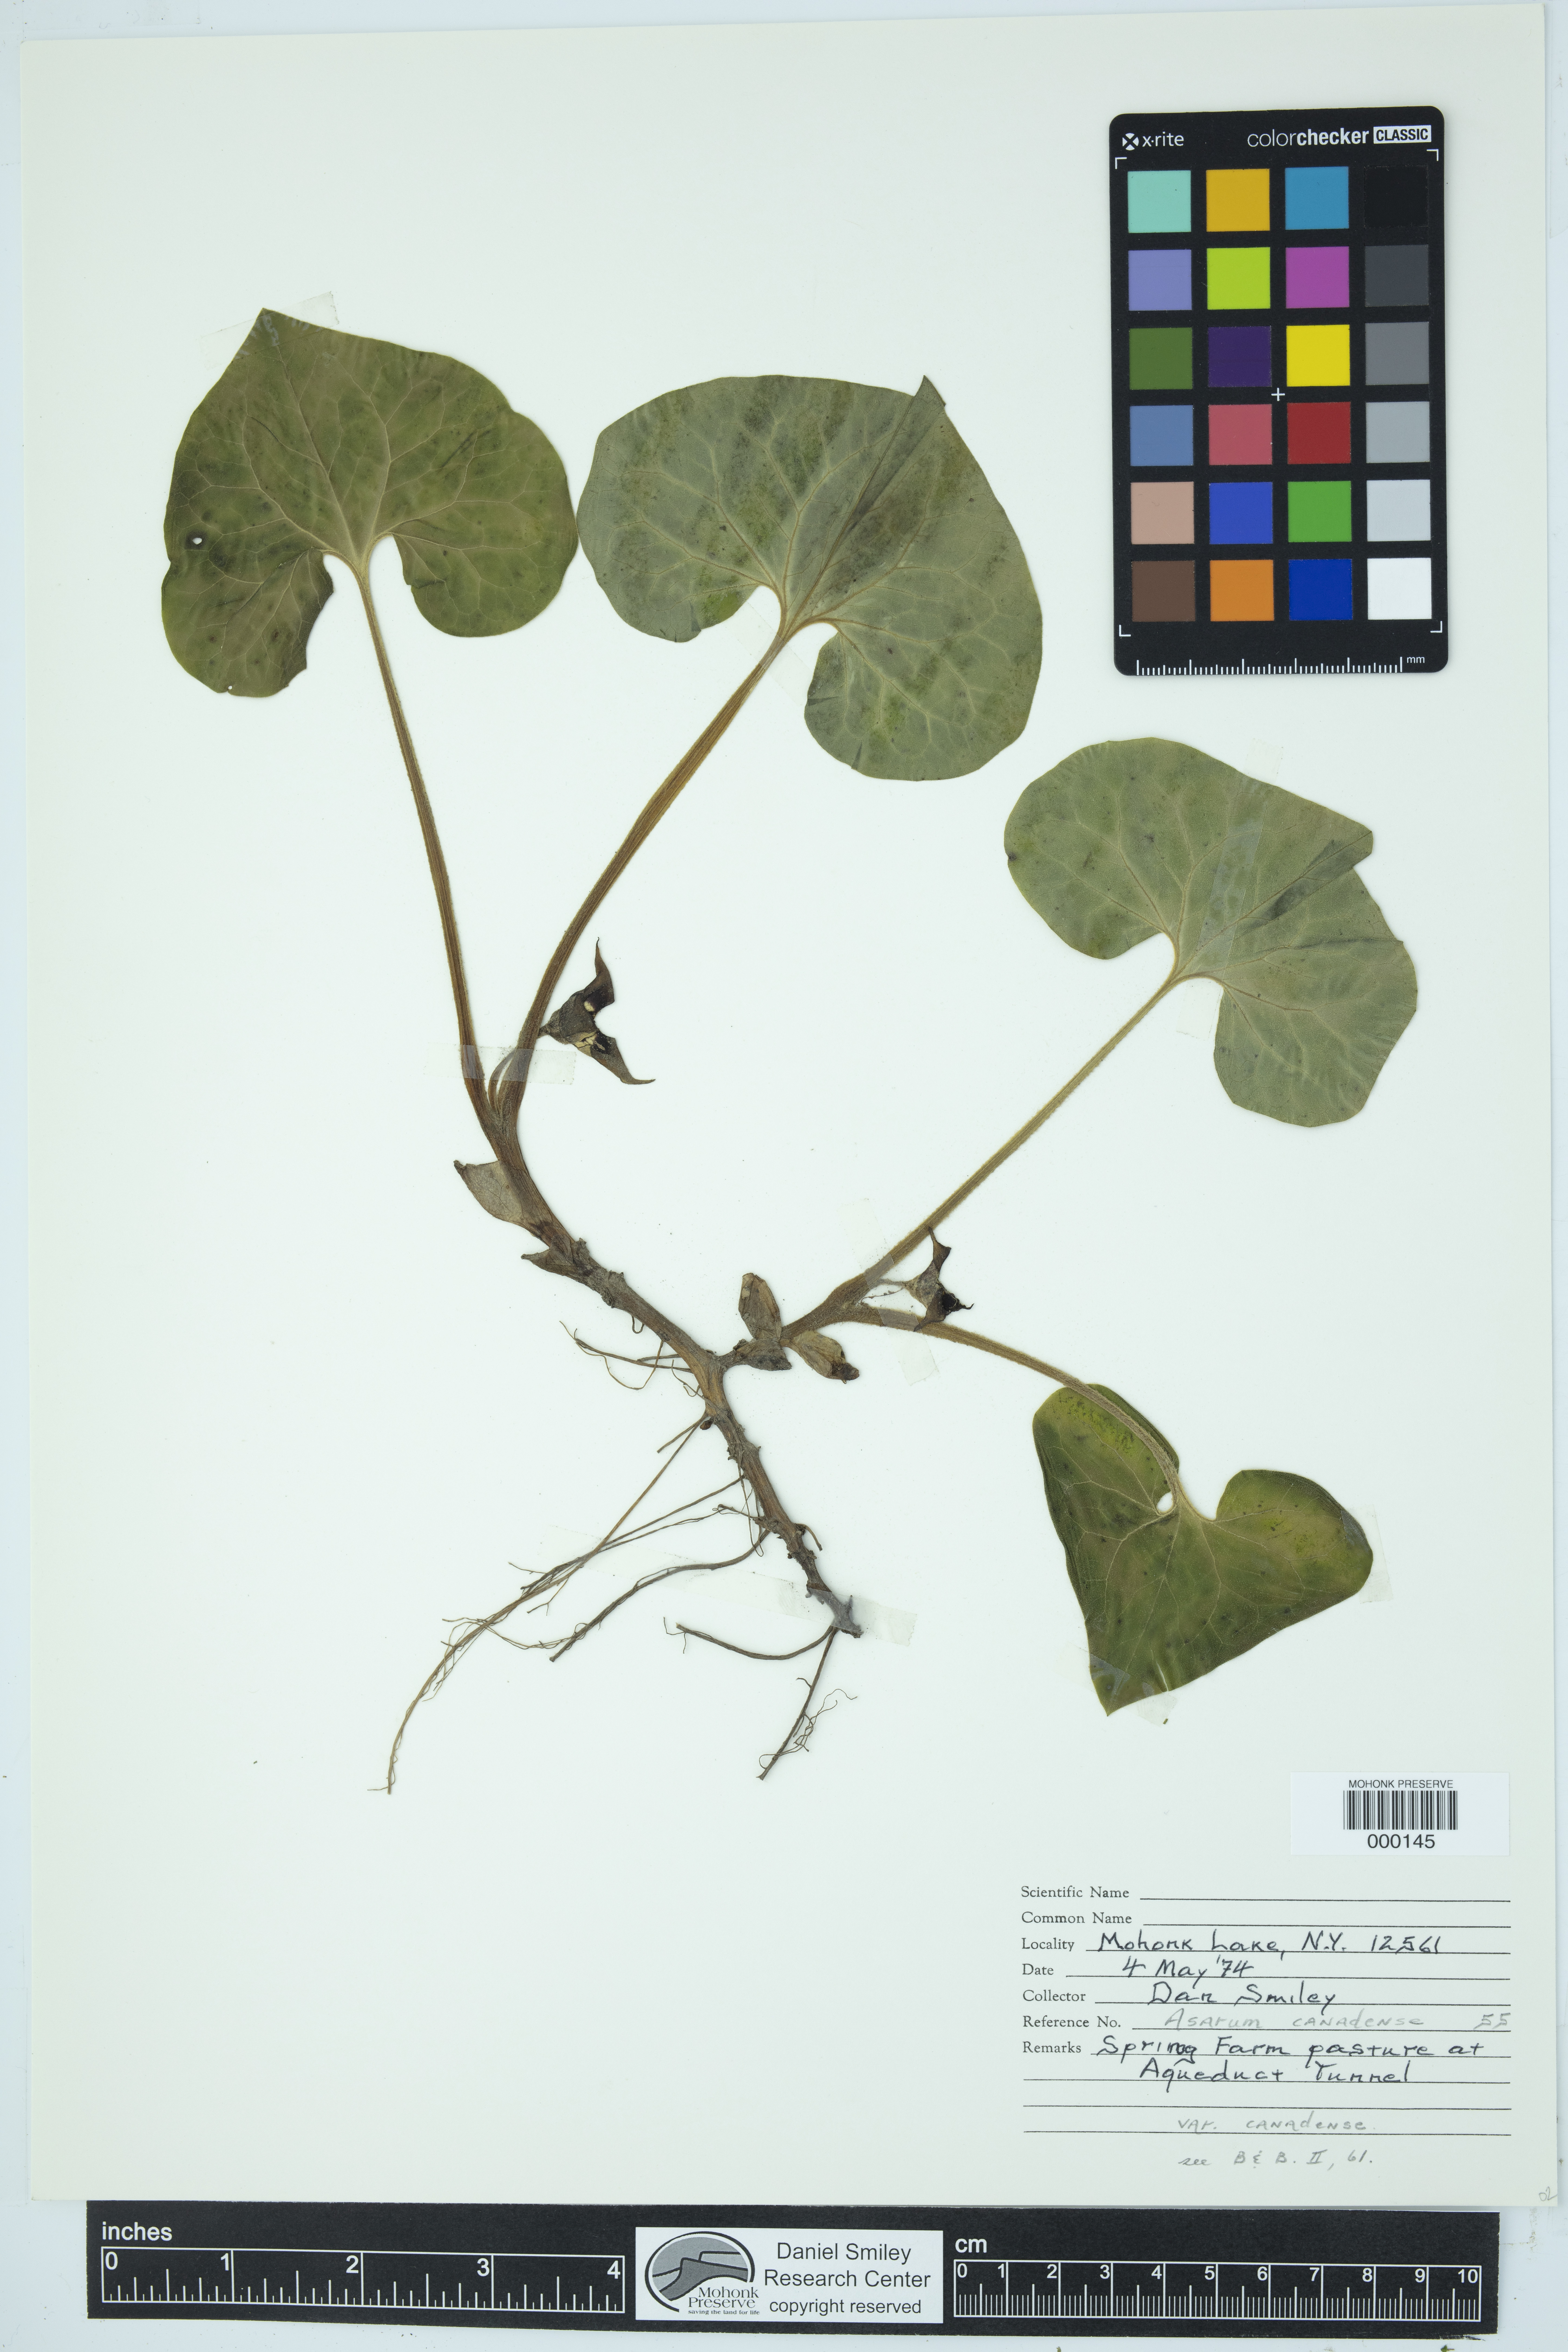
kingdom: Plantae
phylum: Tracheophyta
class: Magnoliopsida
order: Piperales
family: Aristolochiaceae
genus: Asarum
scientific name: Asarum canadense
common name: Wild ginger
